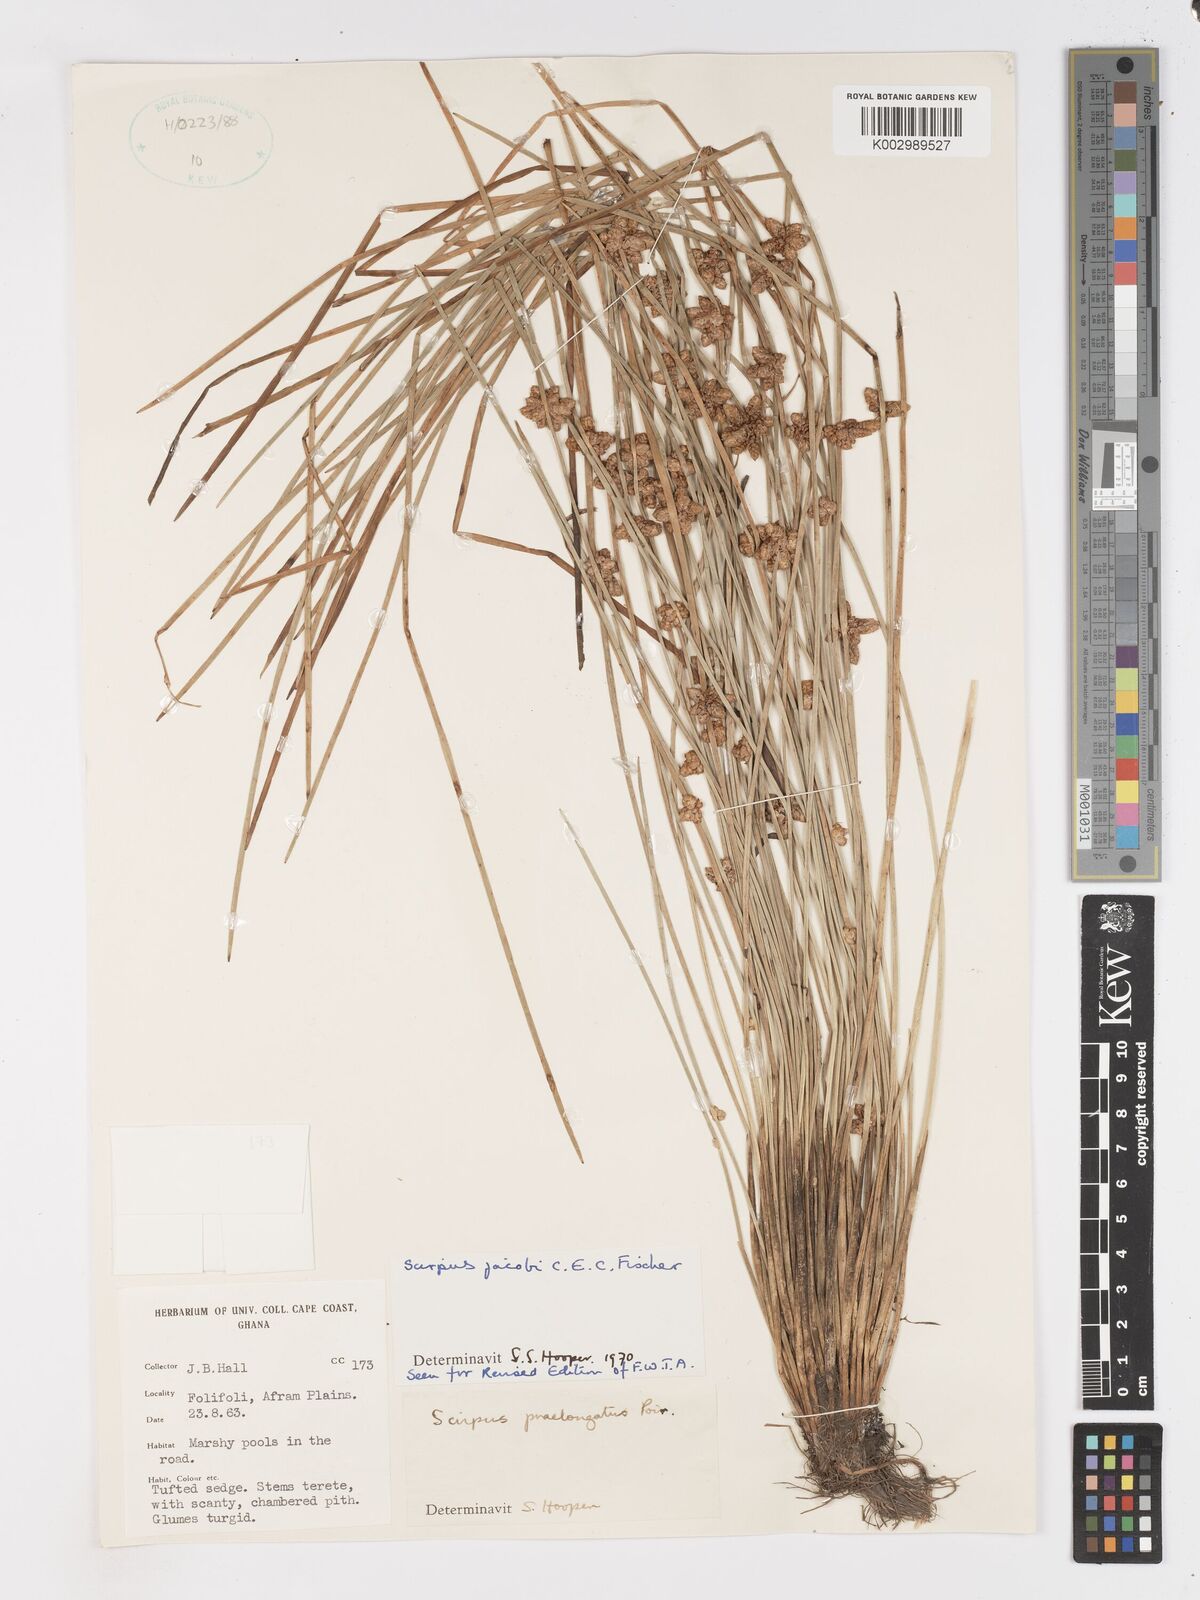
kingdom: Plantae
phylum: Tracheophyta
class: Liliopsida
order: Poales
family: Cyperaceae
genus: Schoenoplectiella
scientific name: Schoenoplectiella senegalensis
